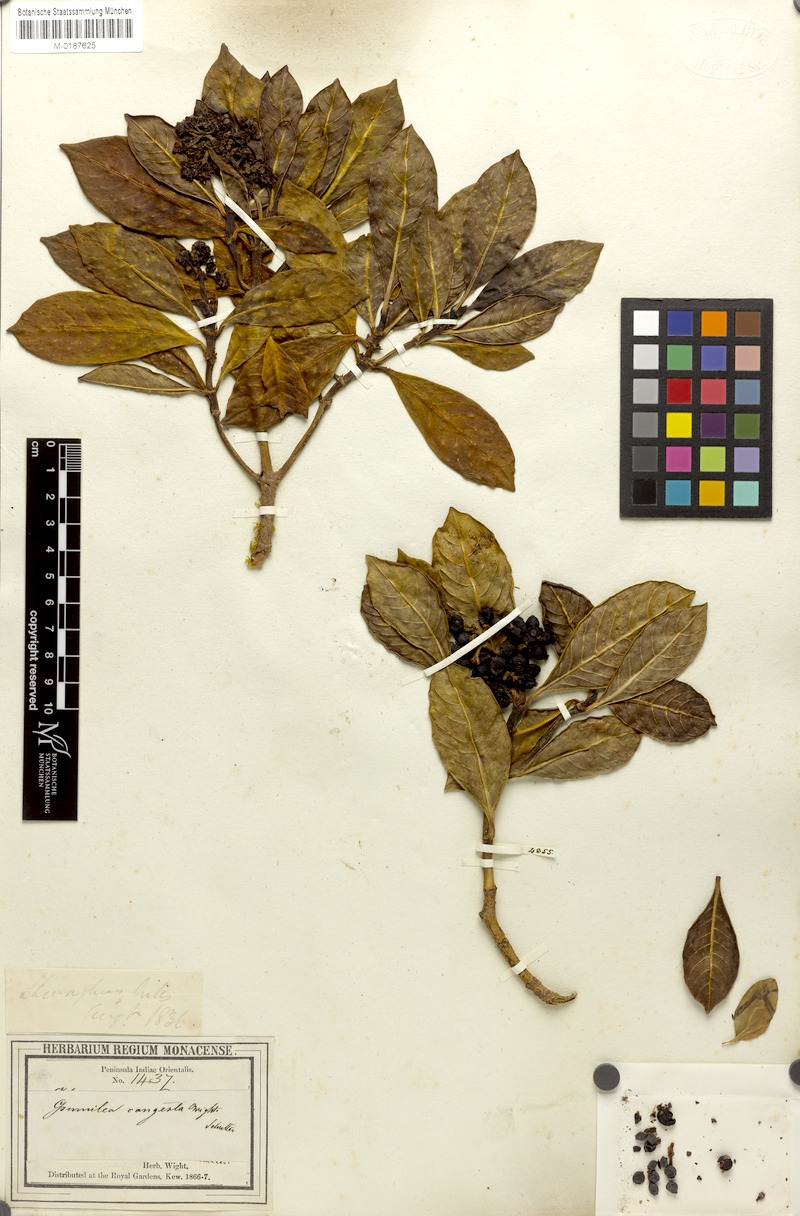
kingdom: Plantae
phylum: Tracheophyta
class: Magnoliopsida
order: Gentianales
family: Rubiaceae
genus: Psychotria
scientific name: Psychotria nilgiriensis
